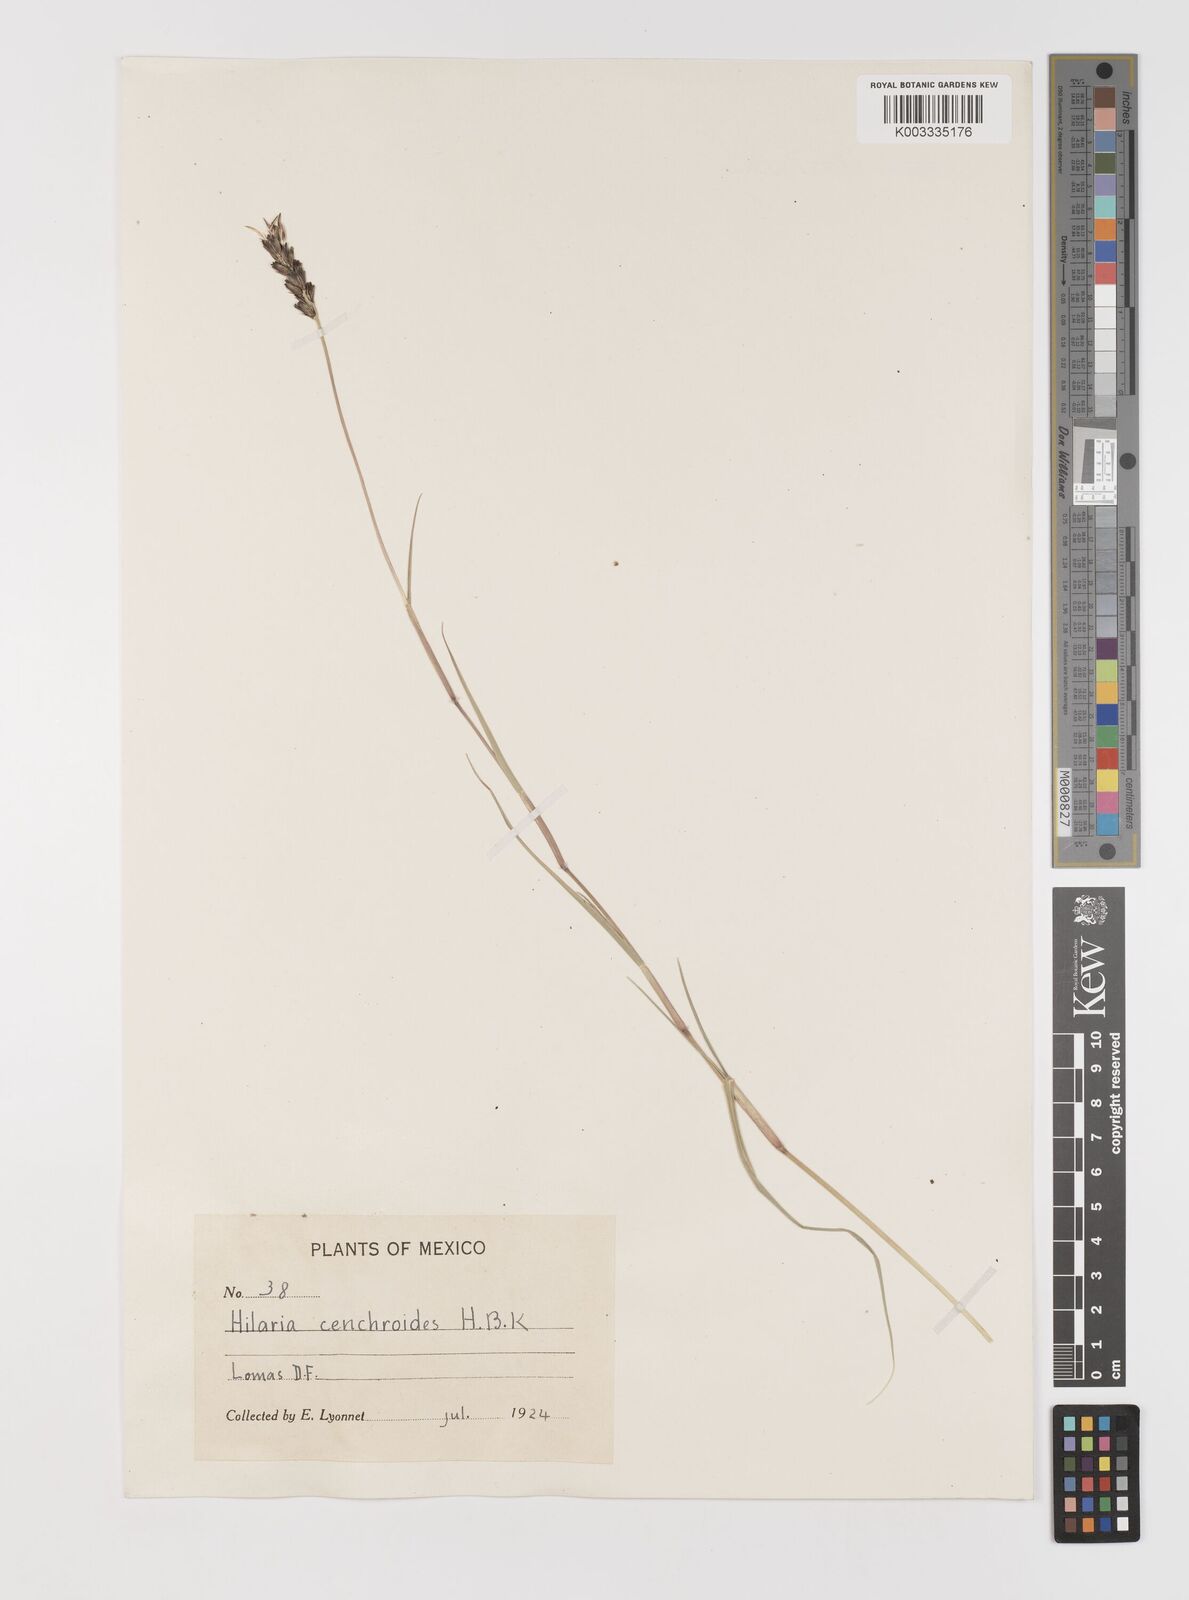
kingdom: Plantae
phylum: Tracheophyta
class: Liliopsida
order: Poales
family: Poaceae
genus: Hilaria
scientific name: Hilaria cenchroides
